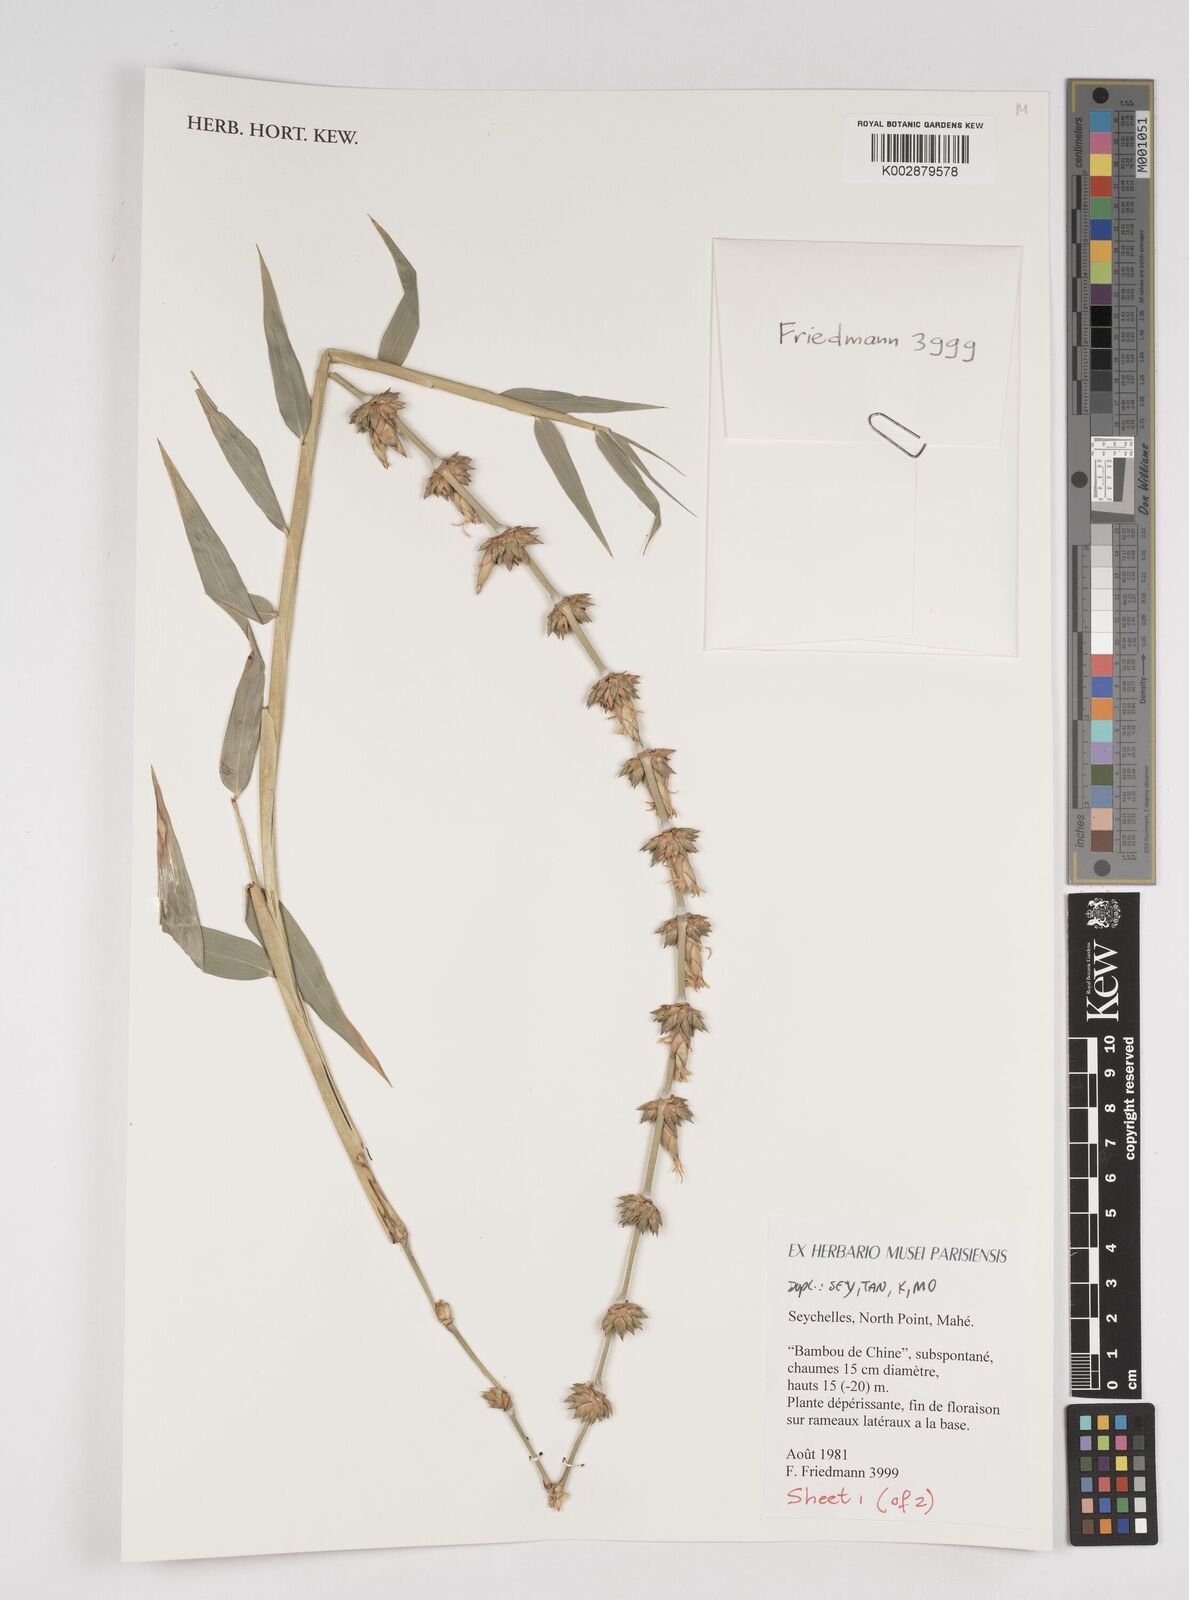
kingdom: Plantae
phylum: Tracheophyta
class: Liliopsida
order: Poales
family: Poaceae
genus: Dendrocalamus
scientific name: Dendrocalamus
